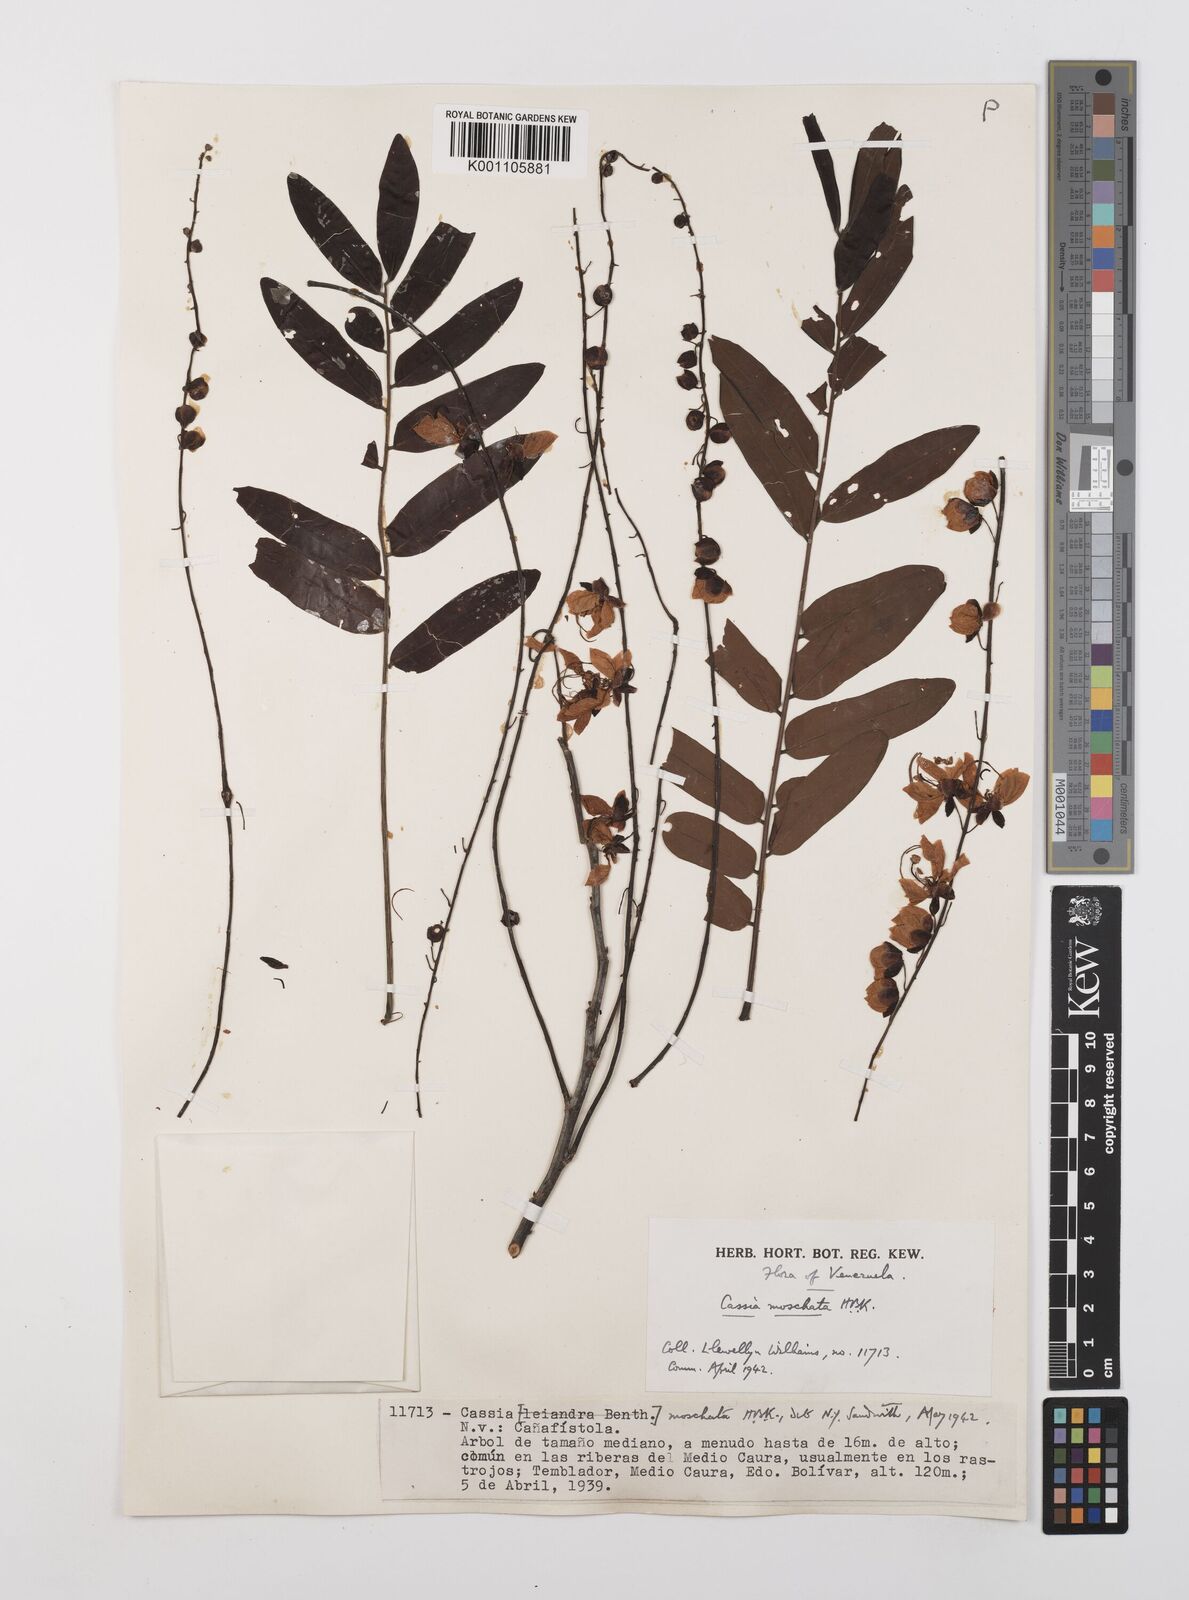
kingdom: Plantae
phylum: Tracheophyta
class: Magnoliopsida
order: Fabales
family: Fabaceae
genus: Cassia
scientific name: Cassia moschata
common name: Bronze shower tree
